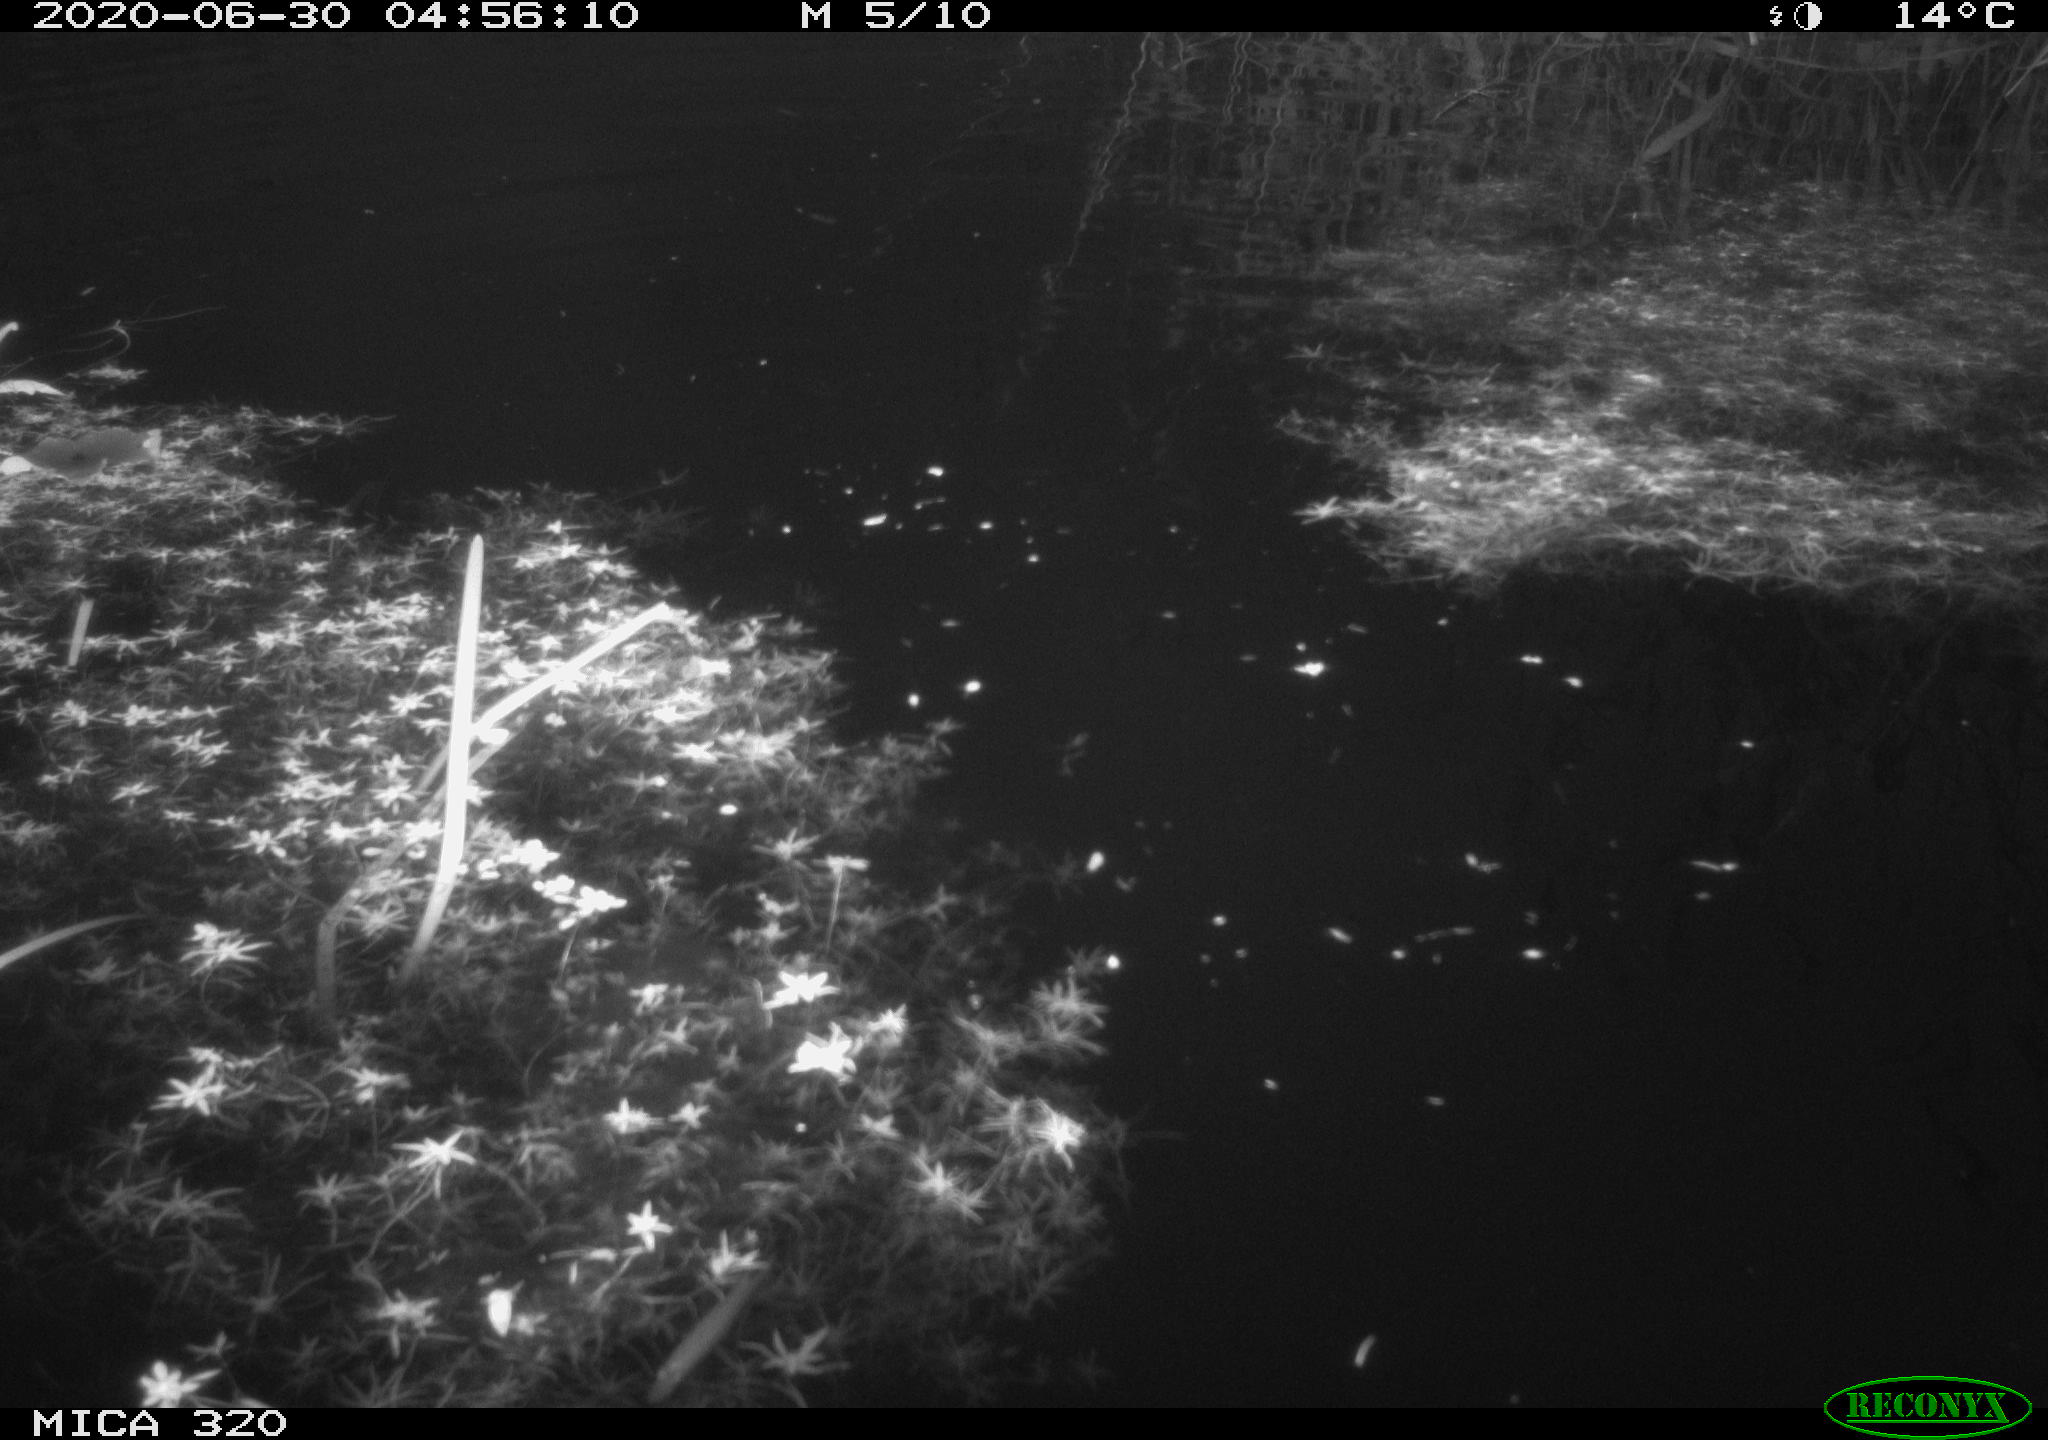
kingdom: Animalia
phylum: Chordata
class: Aves
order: Anseriformes
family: Anatidae
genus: Anas
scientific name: Anas platyrhynchos
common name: Mallard
